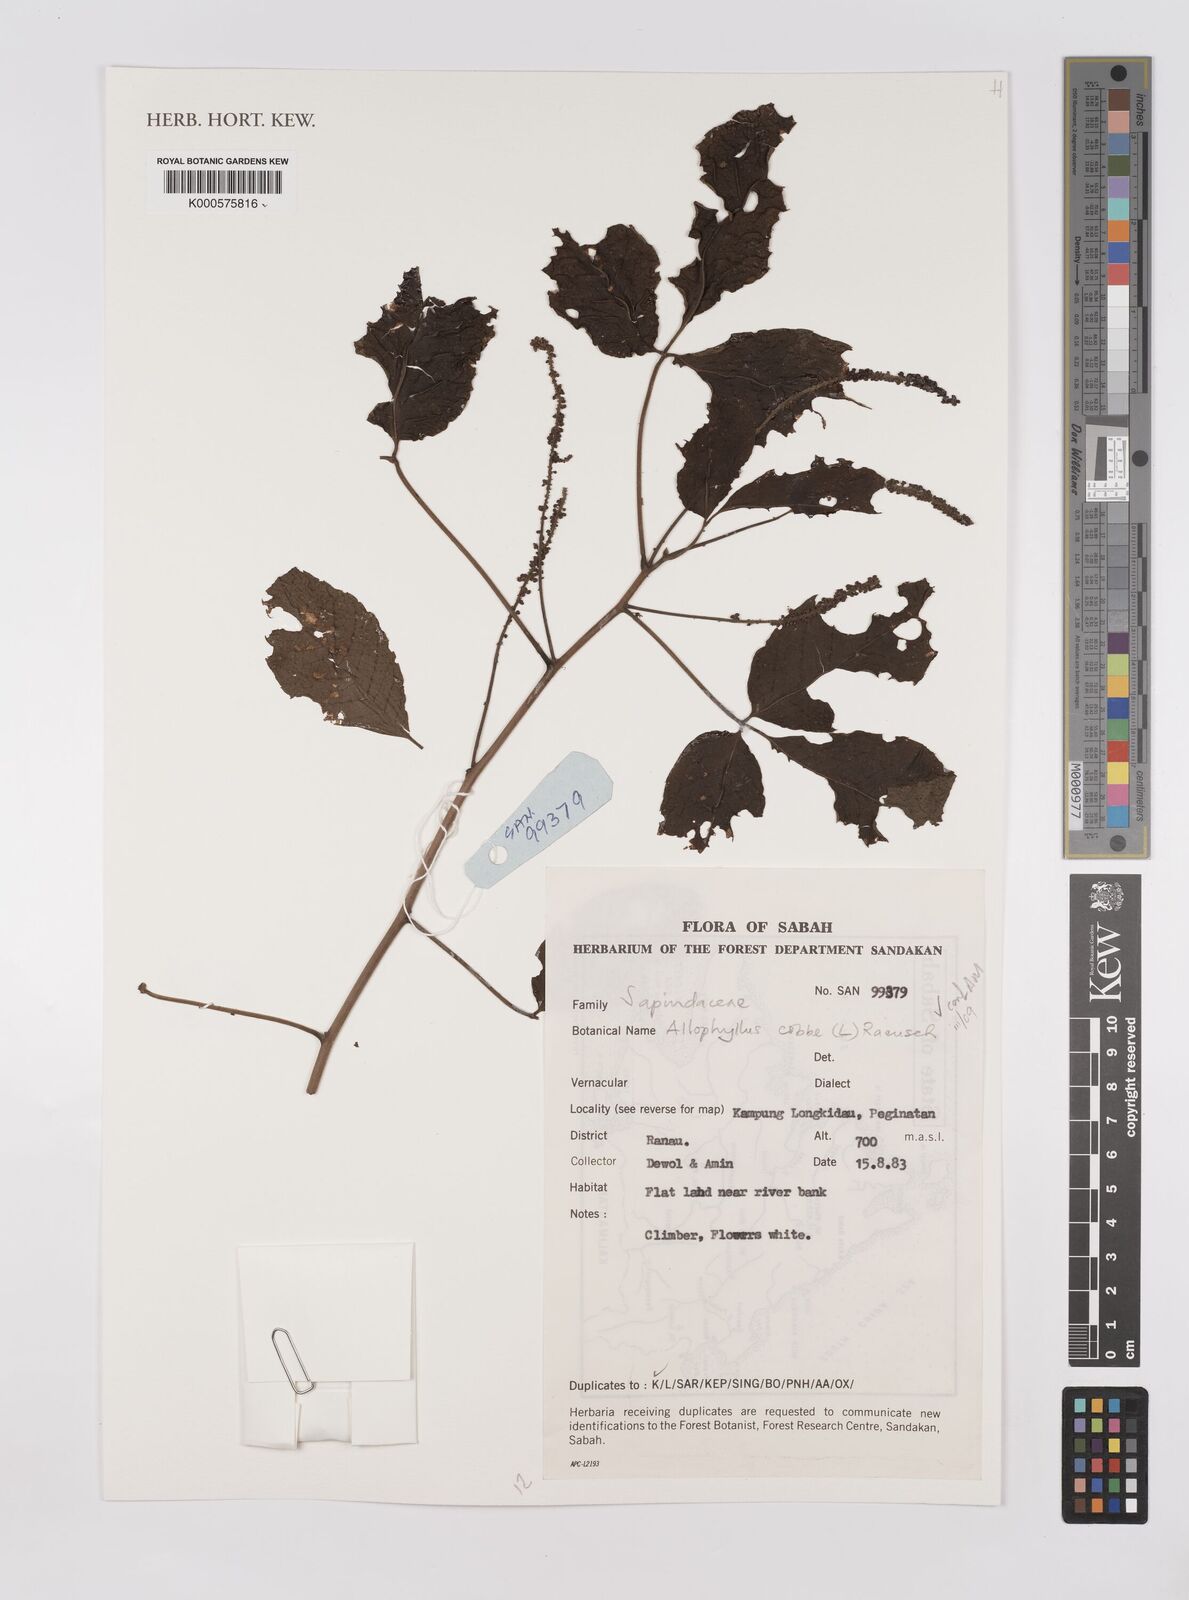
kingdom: Plantae
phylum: Tracheophyta
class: Magnoliopsida
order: Sapindales
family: Sapindaceae
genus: Allophylus
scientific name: Allophylus
